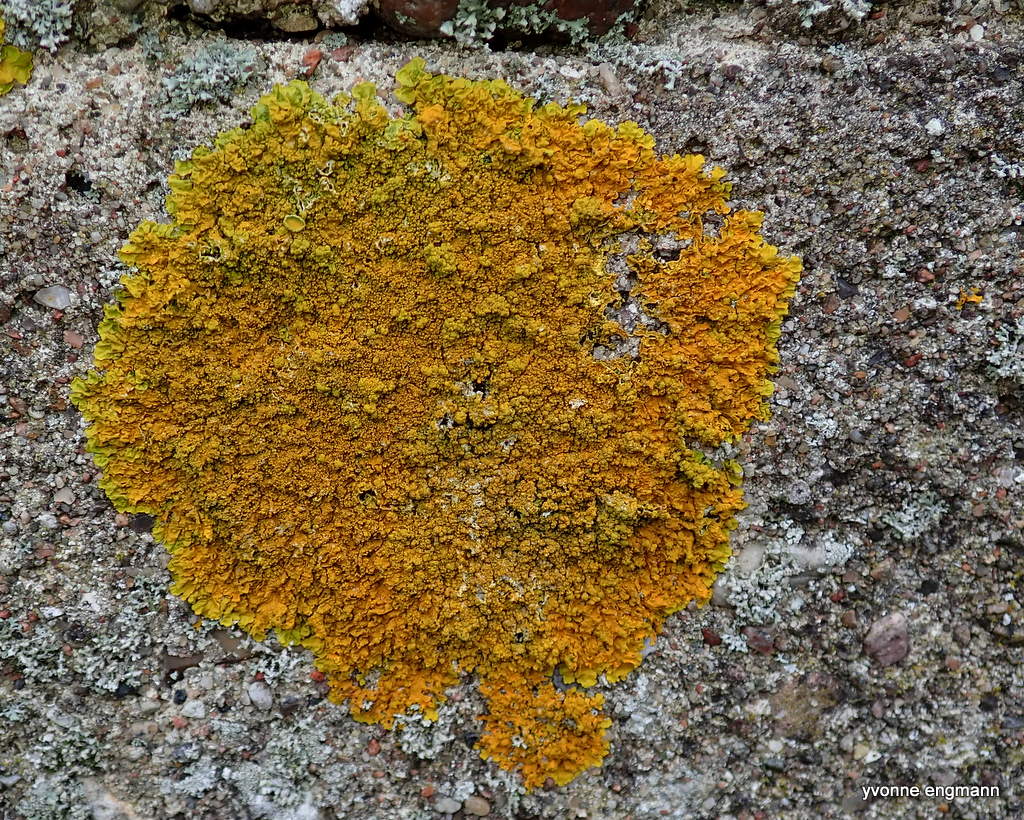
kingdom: Fungi
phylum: Ascomycota
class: Lecanoromycetes
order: Teloschistales
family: Teloschistaceae
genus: Xanthoria
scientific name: Xanthoria calcicola
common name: vortet væggelav
